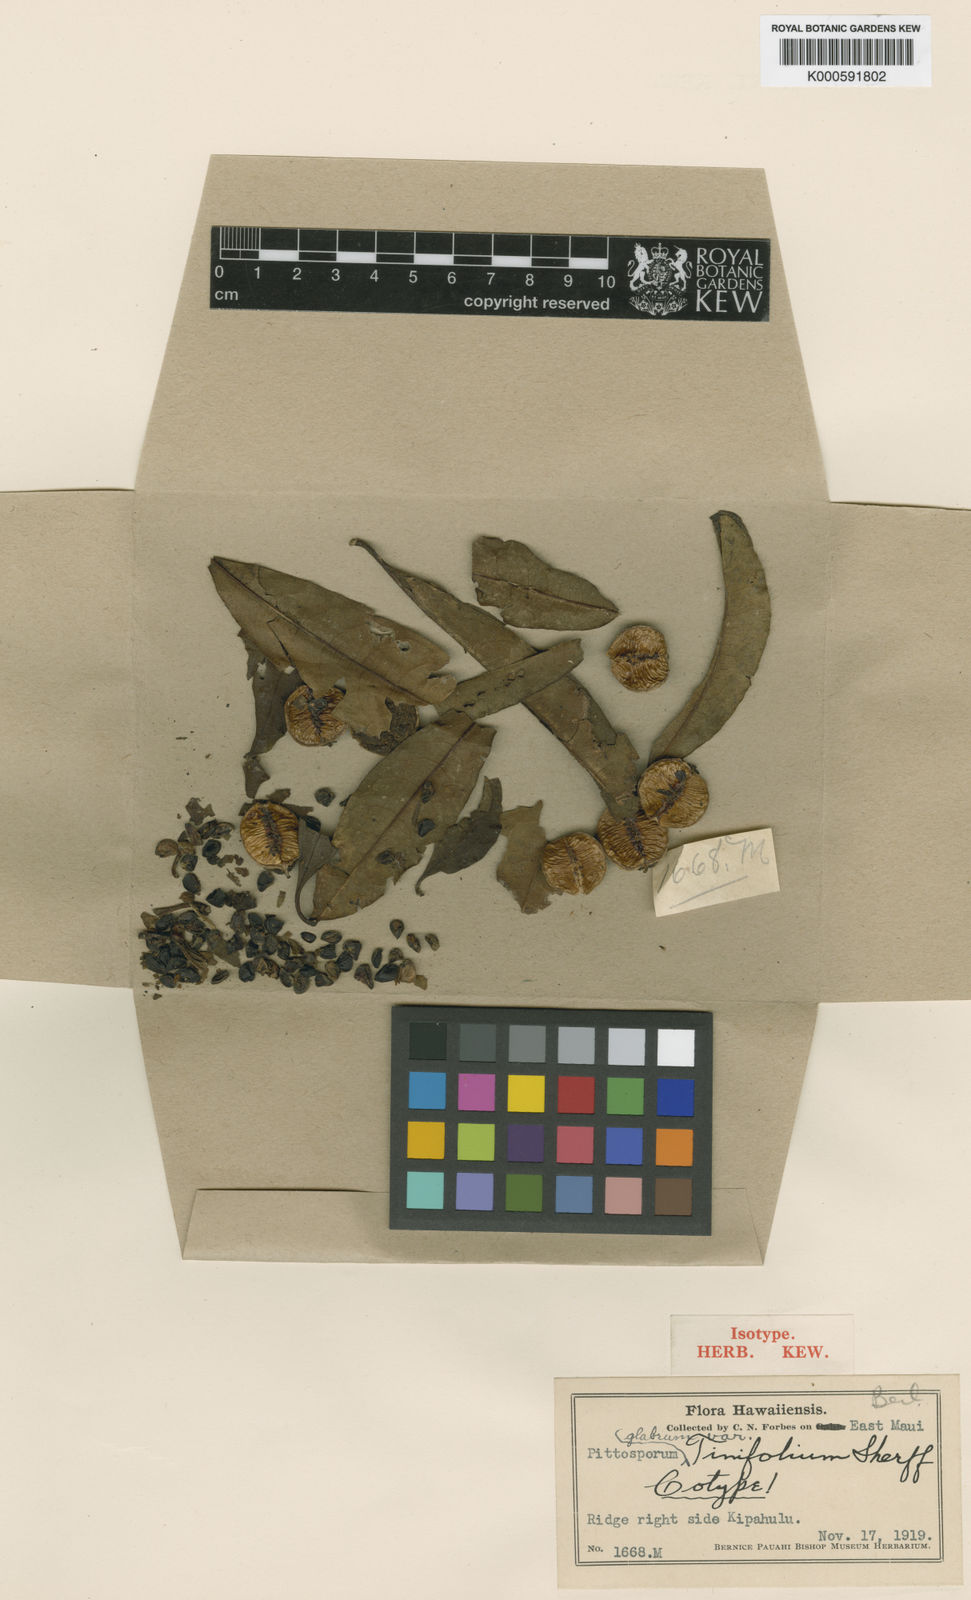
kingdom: Plantae
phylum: Tracheophyta
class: Magnoliopsida
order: Apiales
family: Pittosporaceae
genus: Pittosporum
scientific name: Pittosporum glabrum
